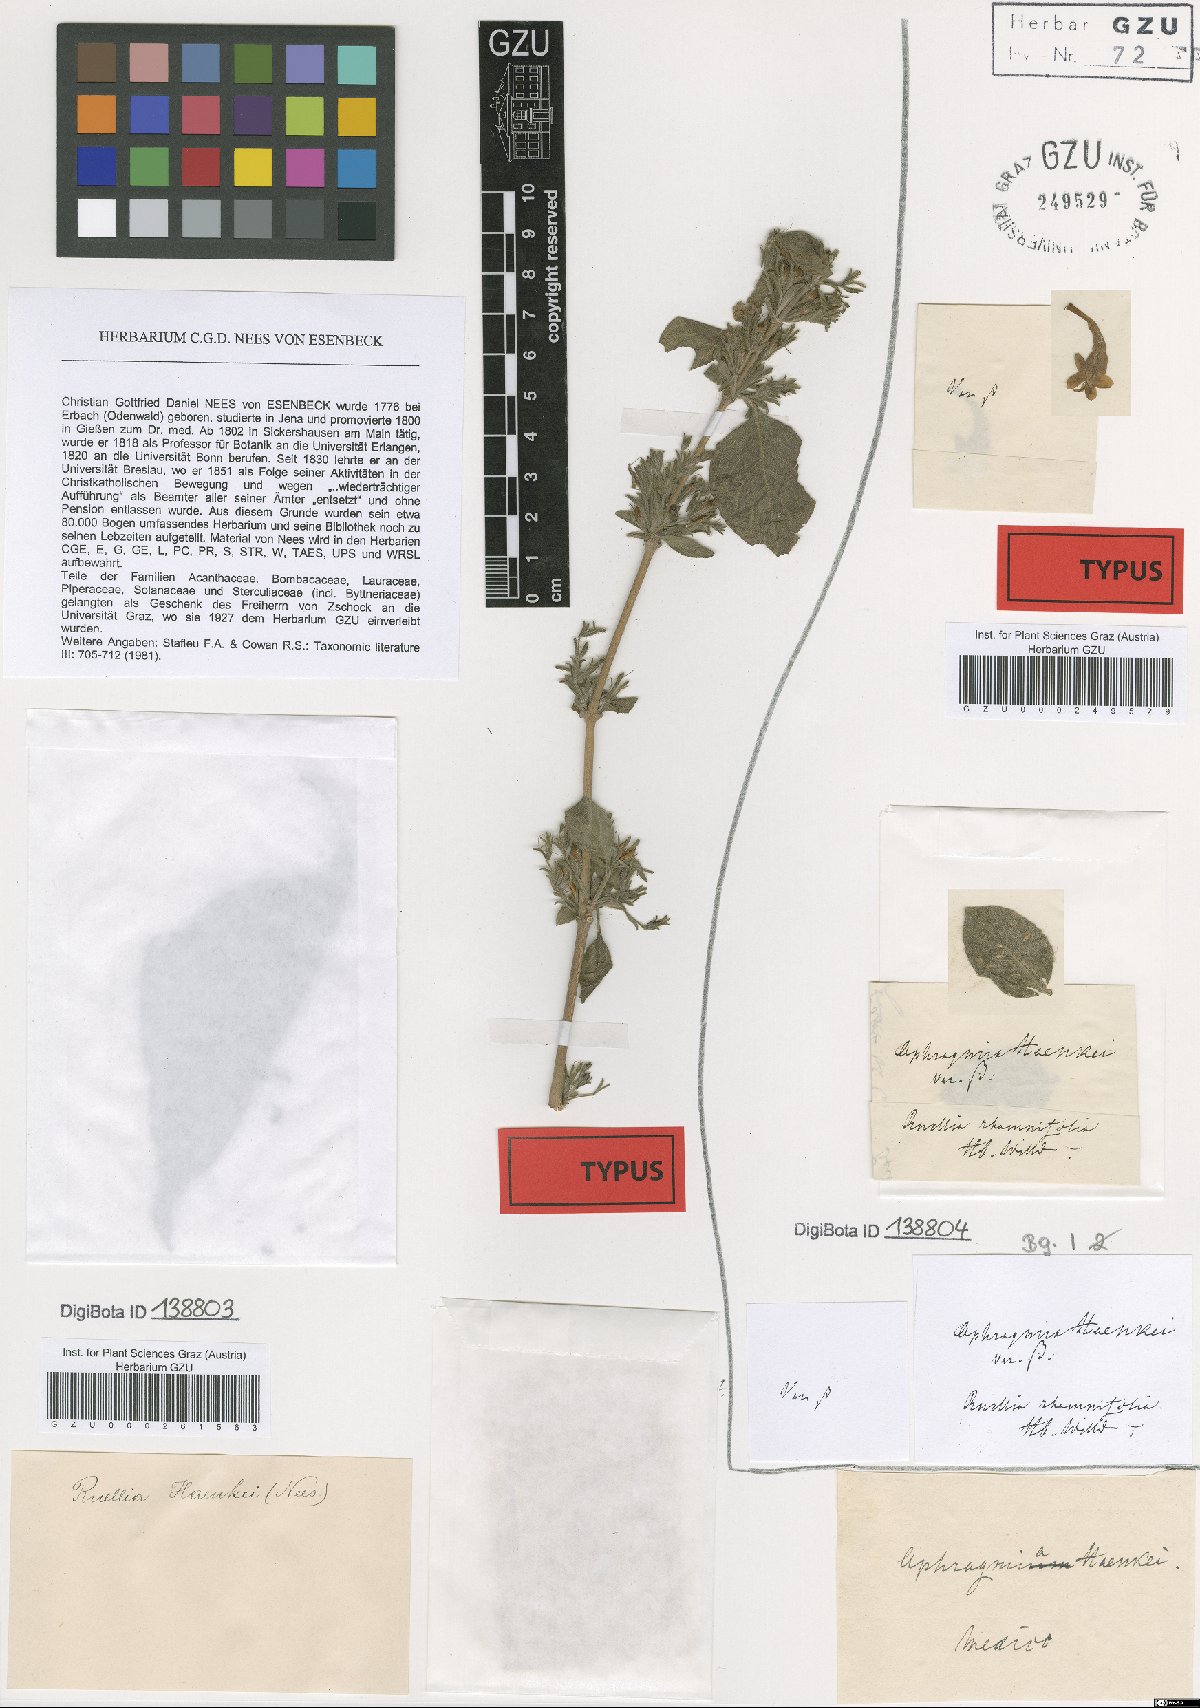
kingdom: Plantae
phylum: Tracheophyta
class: Magnoliopsida
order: Lamiales
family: Acanthaceae
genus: Ruellia
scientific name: Ruellia inundata
